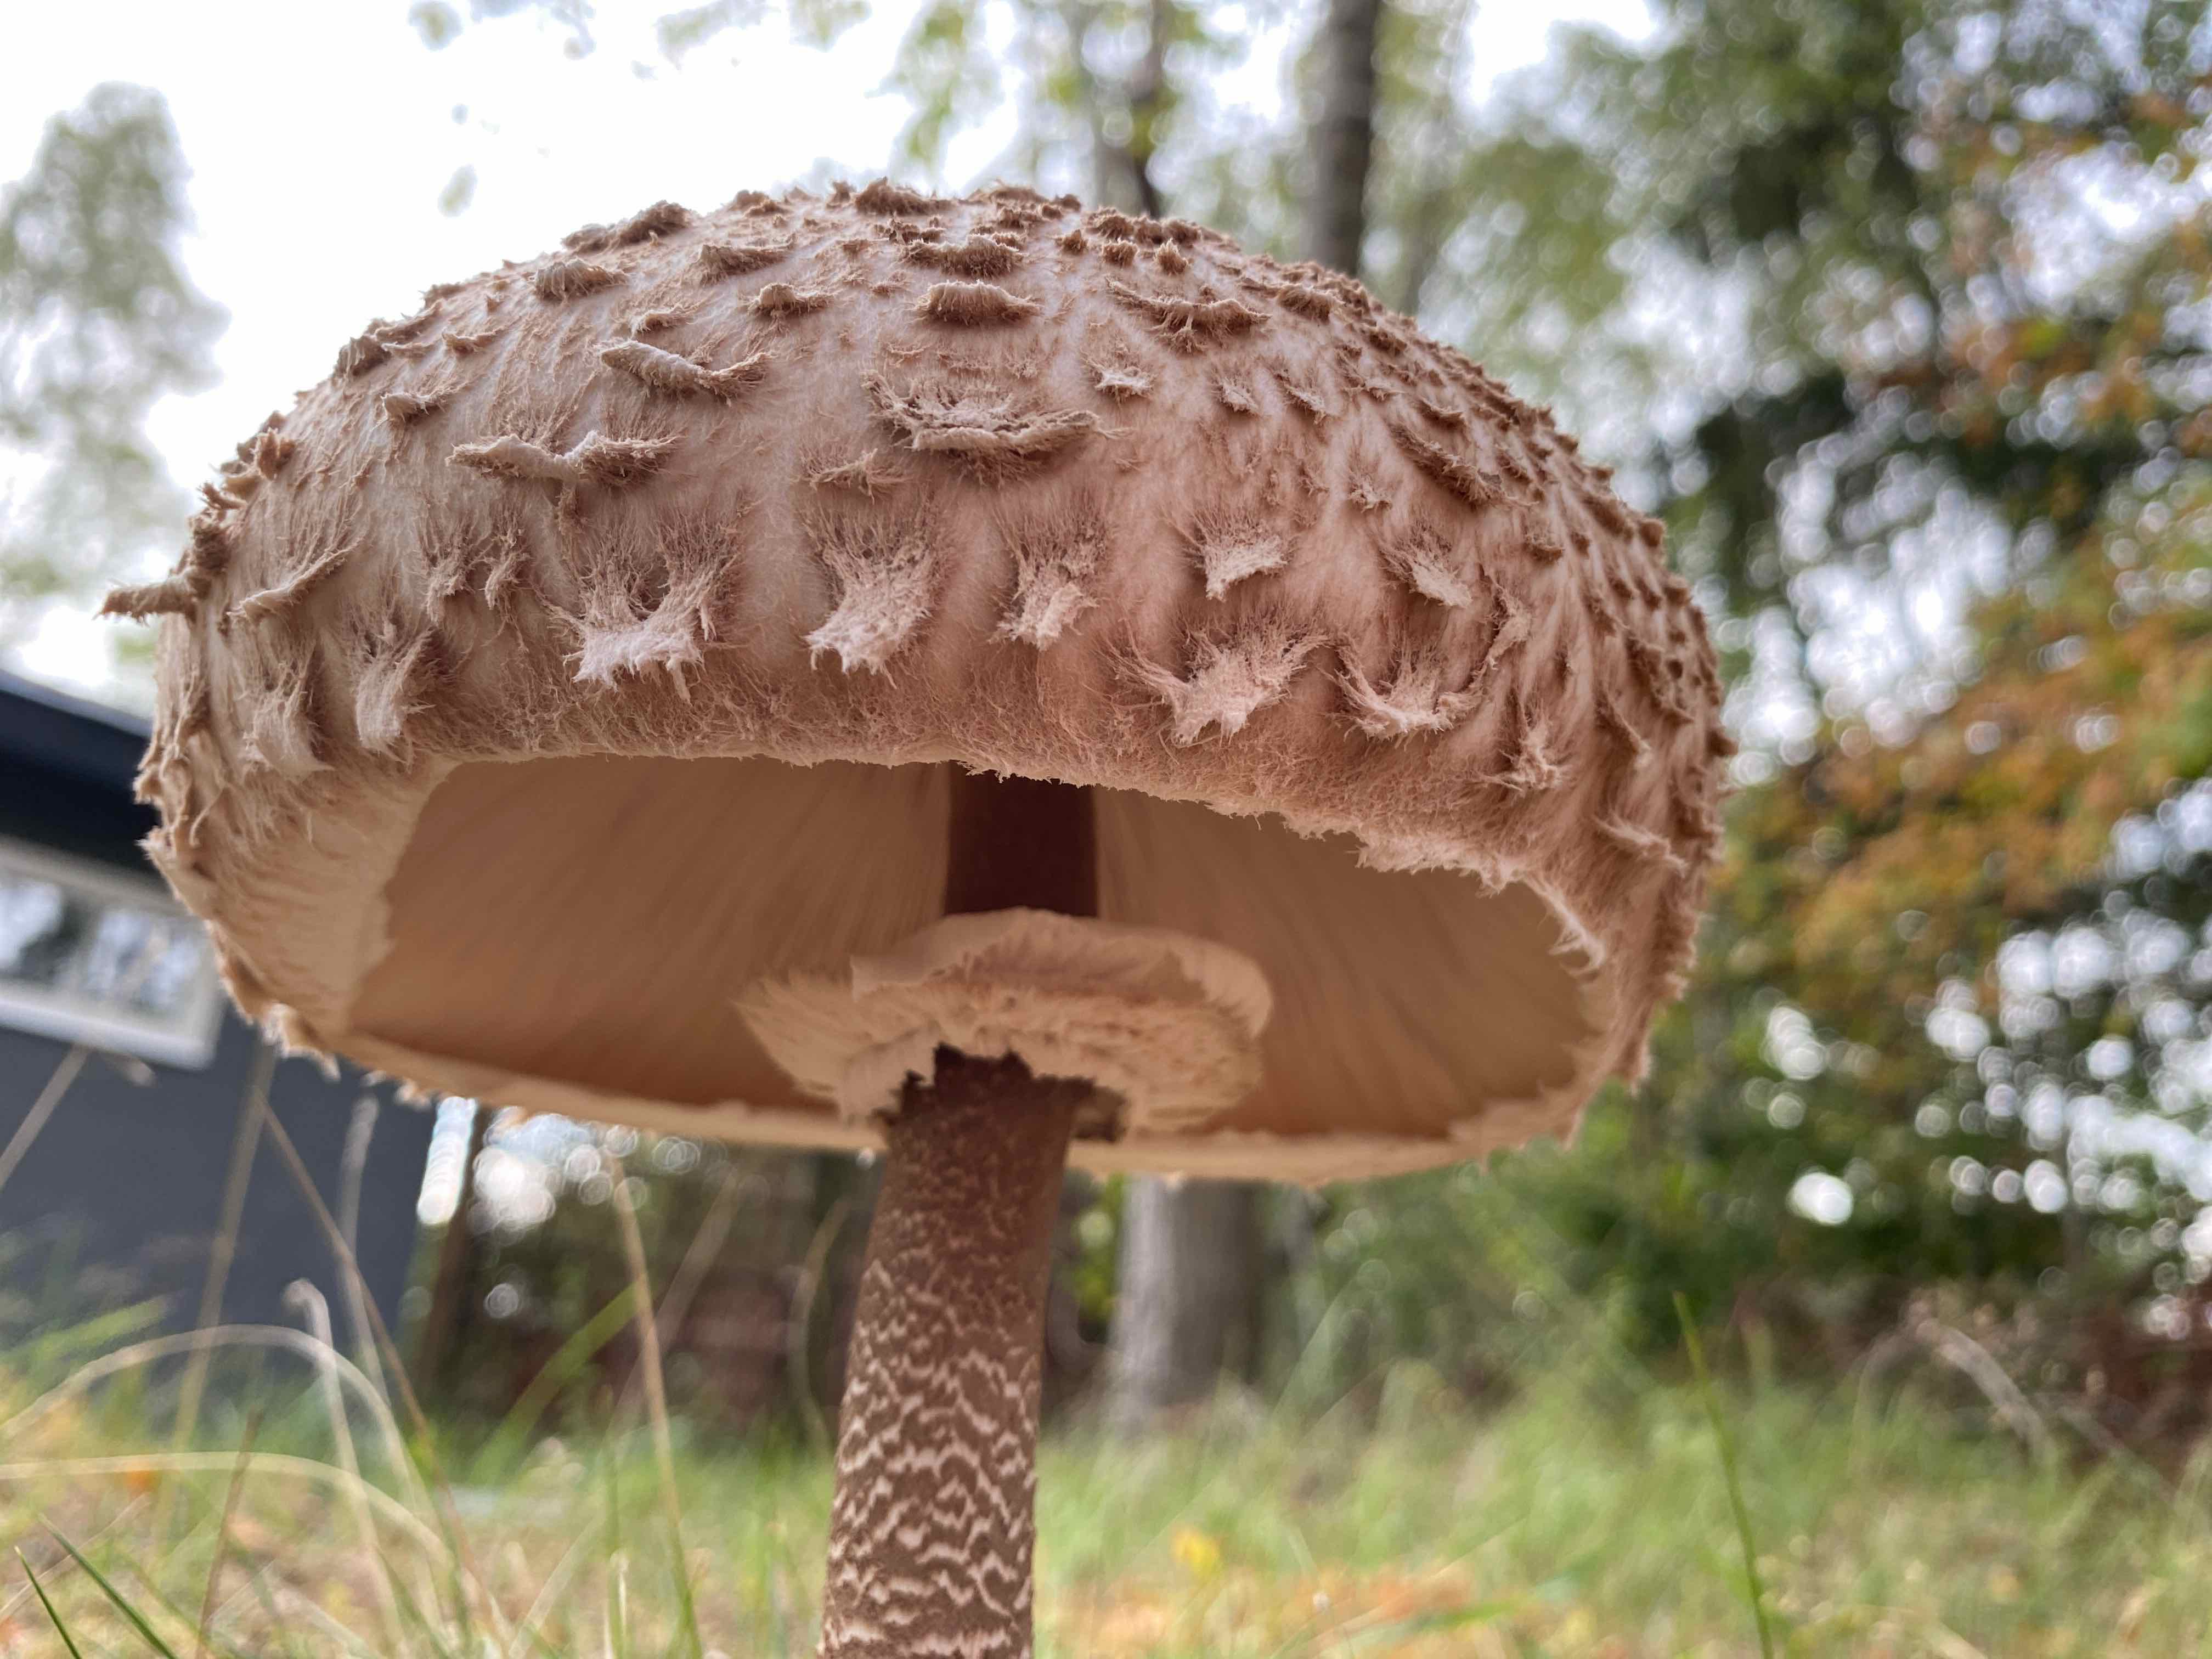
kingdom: Fungi
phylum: Basidiomycota
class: Agaricomycetes
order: Agaricales
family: Agaricaceae
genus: Macrolepiota
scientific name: Macrolepiota procera
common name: stor kæmpeparasolhat
